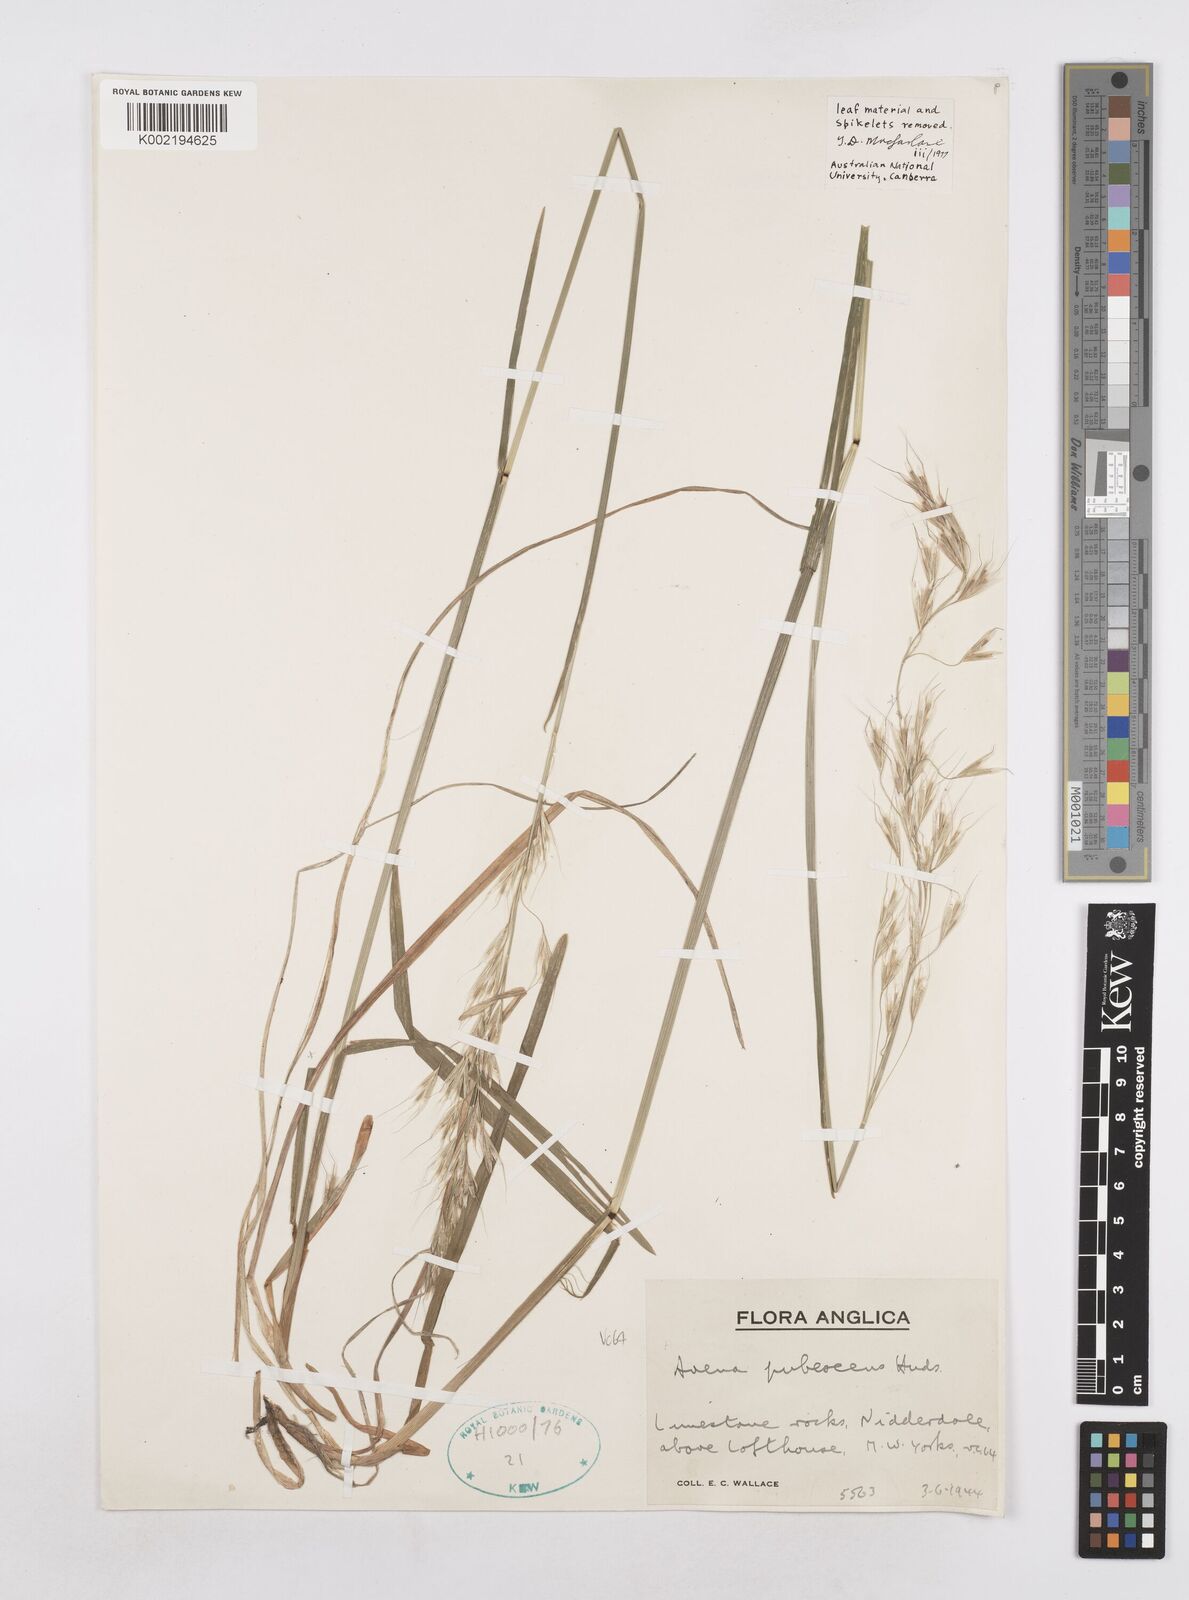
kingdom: Plantae
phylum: Tracheophyta
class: Liliopsida
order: Poales
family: Poaceae
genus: Avenula
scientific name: Avenula pubescens
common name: Downy alpine oatgrass
